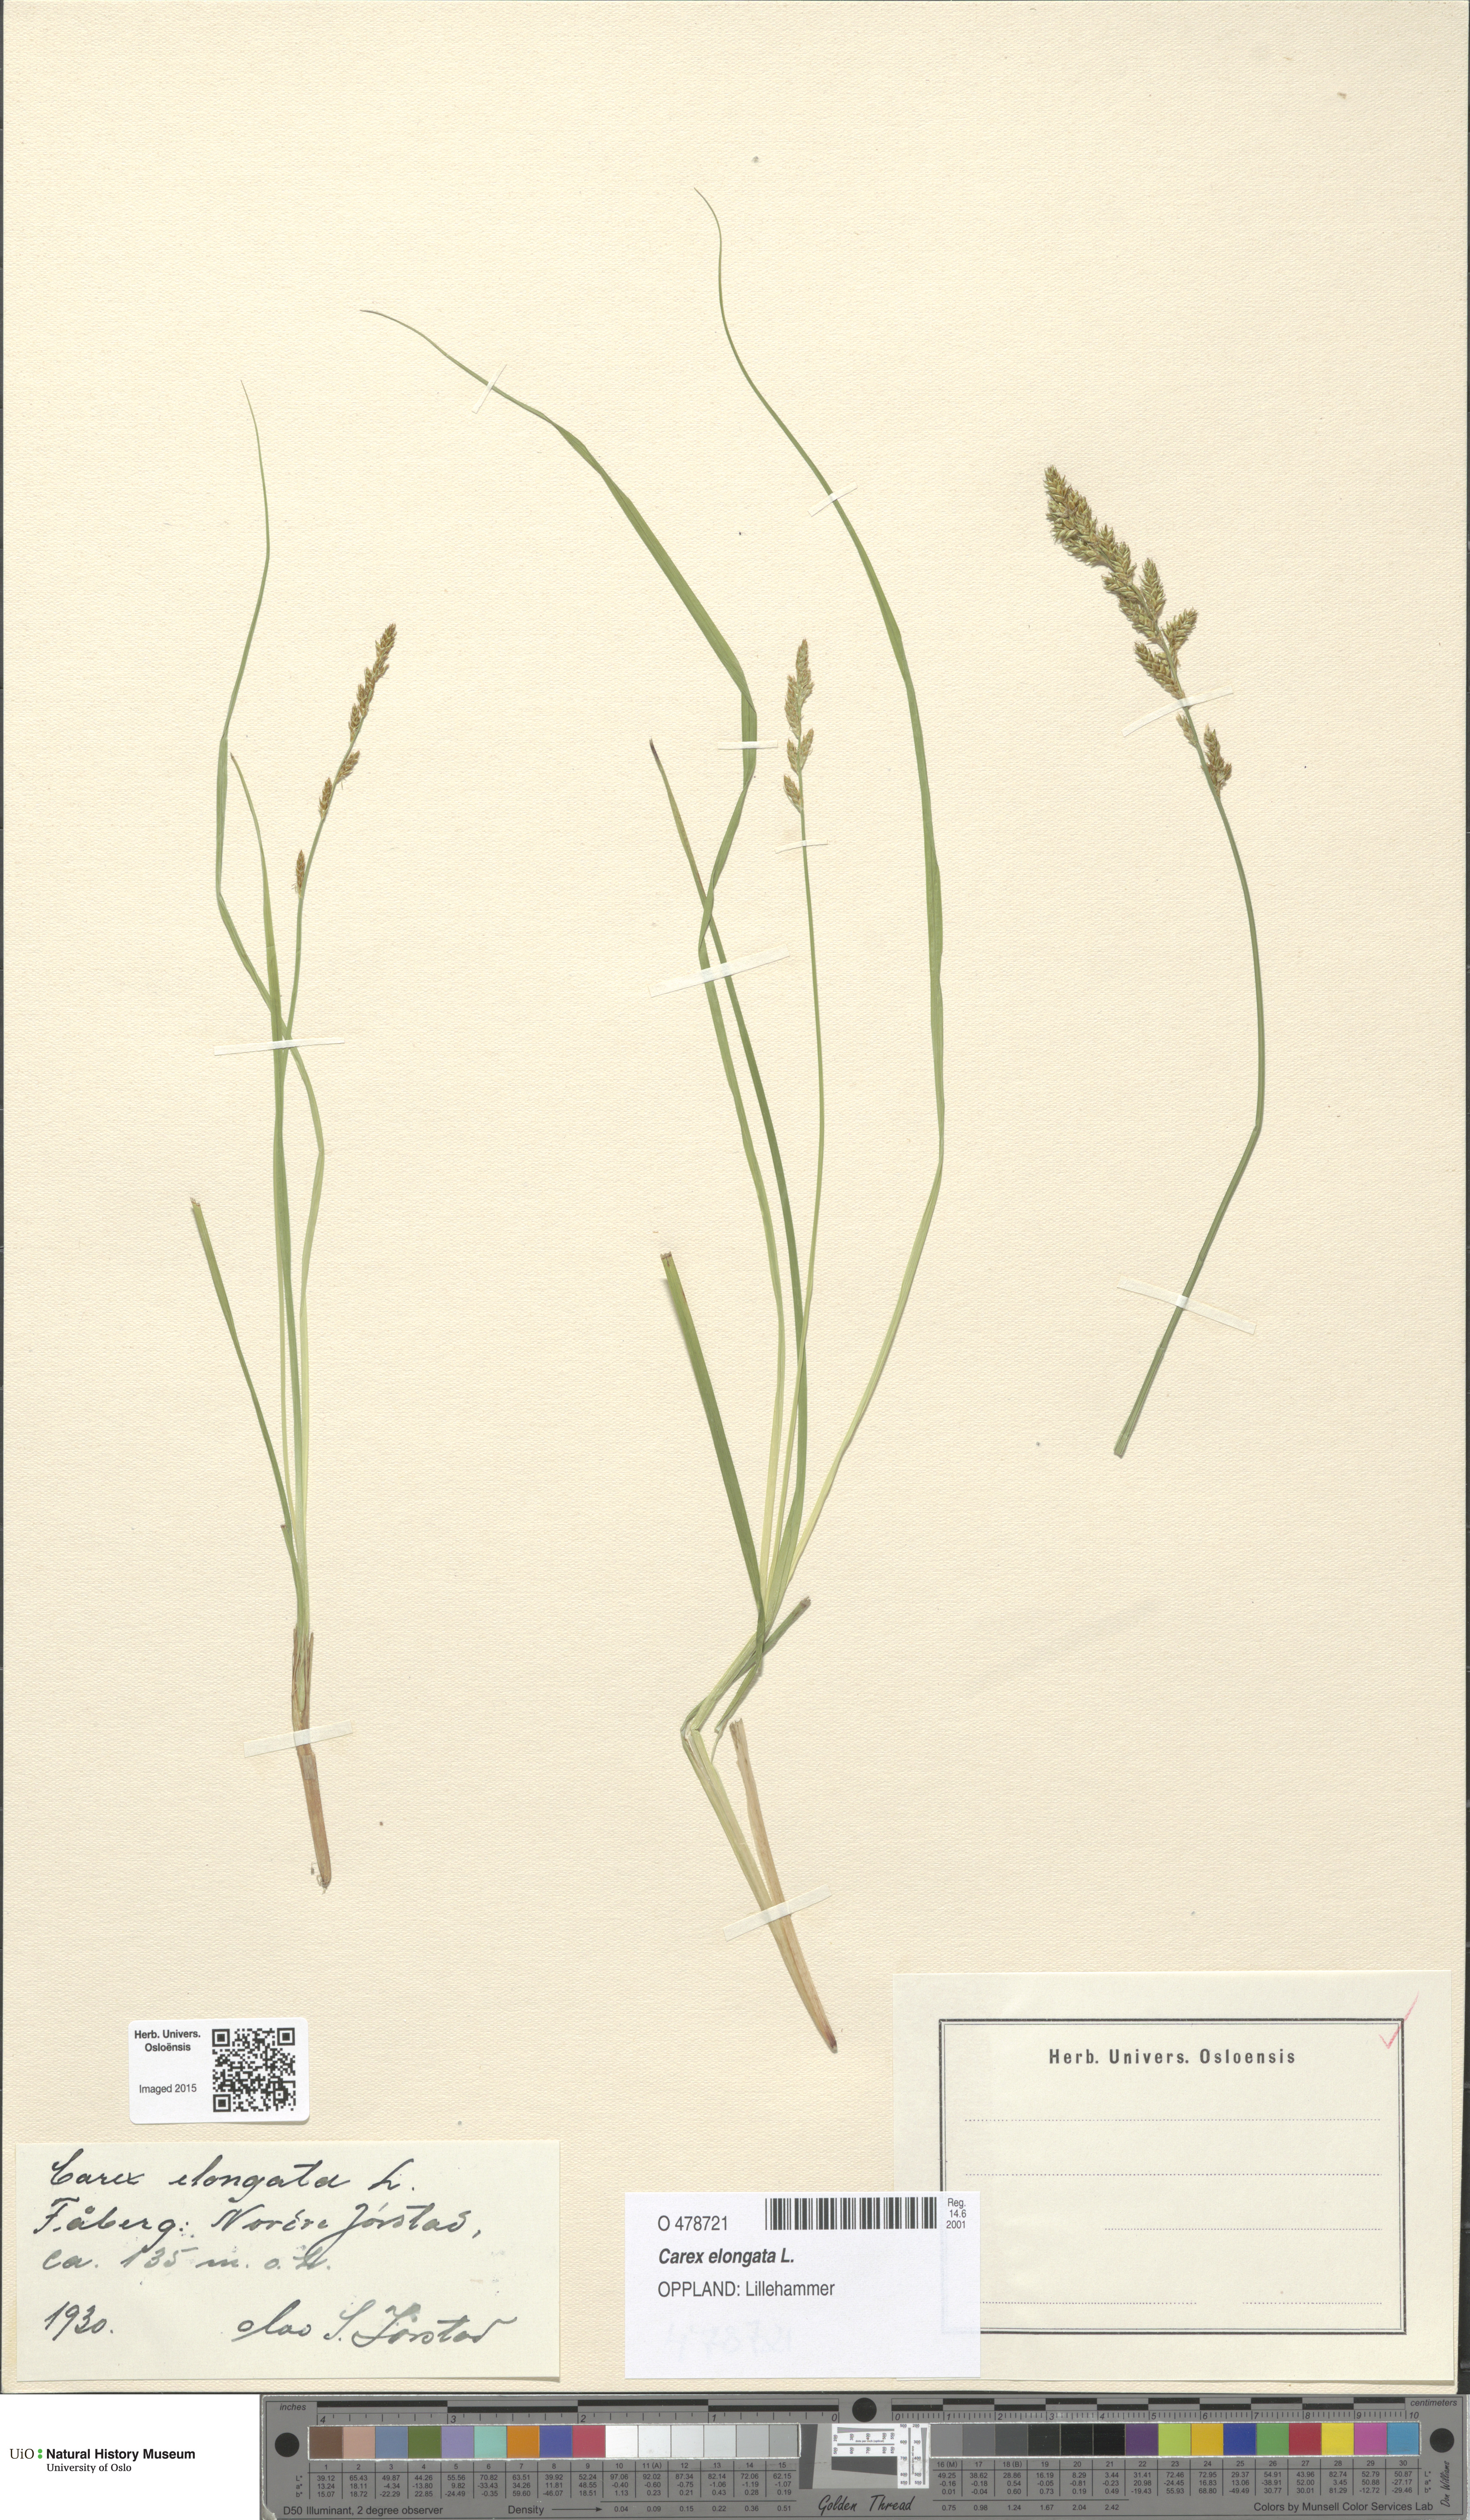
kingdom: Plantae
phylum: Tracheophyta
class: Liliopsida
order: Poales
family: Cyperaceae
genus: Carex
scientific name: Carex elongata
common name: Elongated sedge
